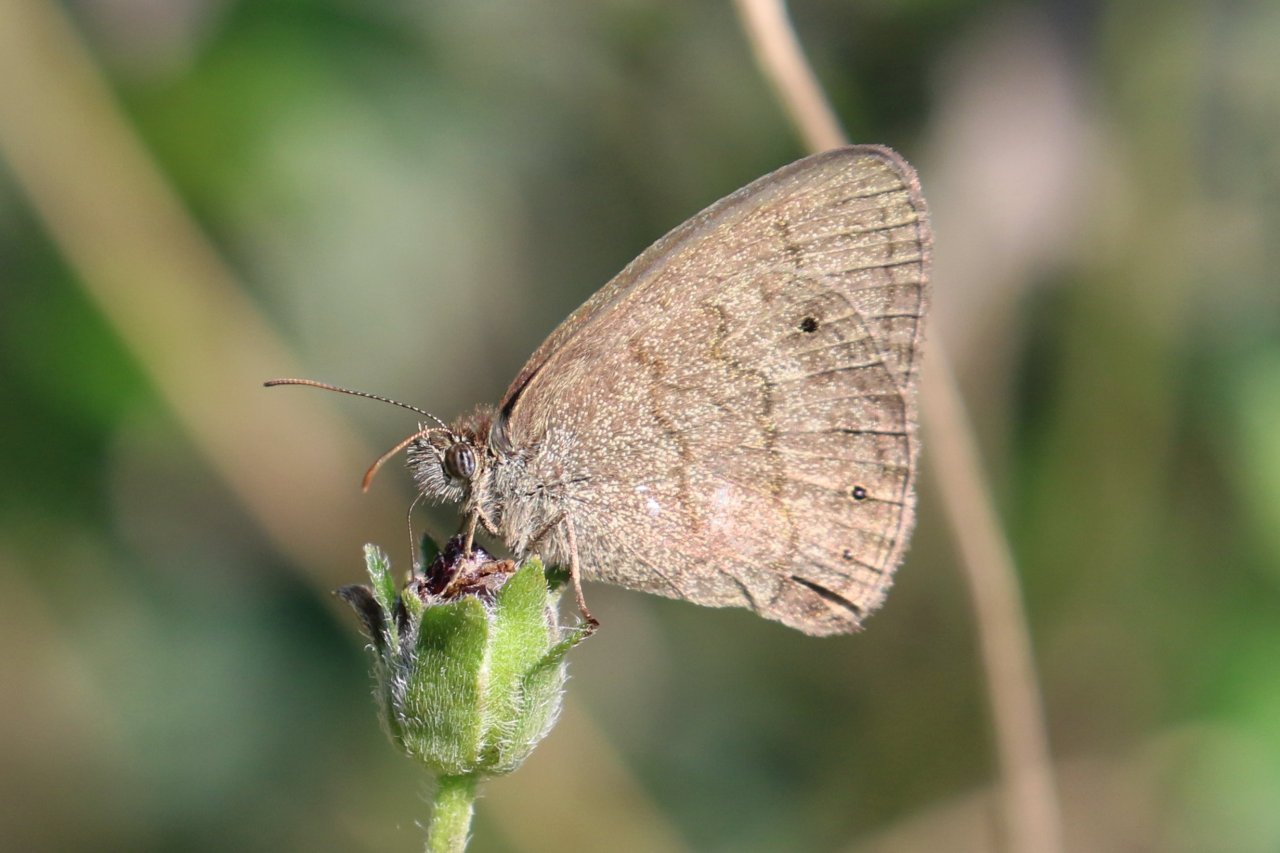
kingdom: Animalia
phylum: Arthropoda
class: Insecta
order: Lepidoptera
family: Nymphalidae
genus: Hermeuptychia
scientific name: Hermeuptychia hermybius
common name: South Texas Satyr
